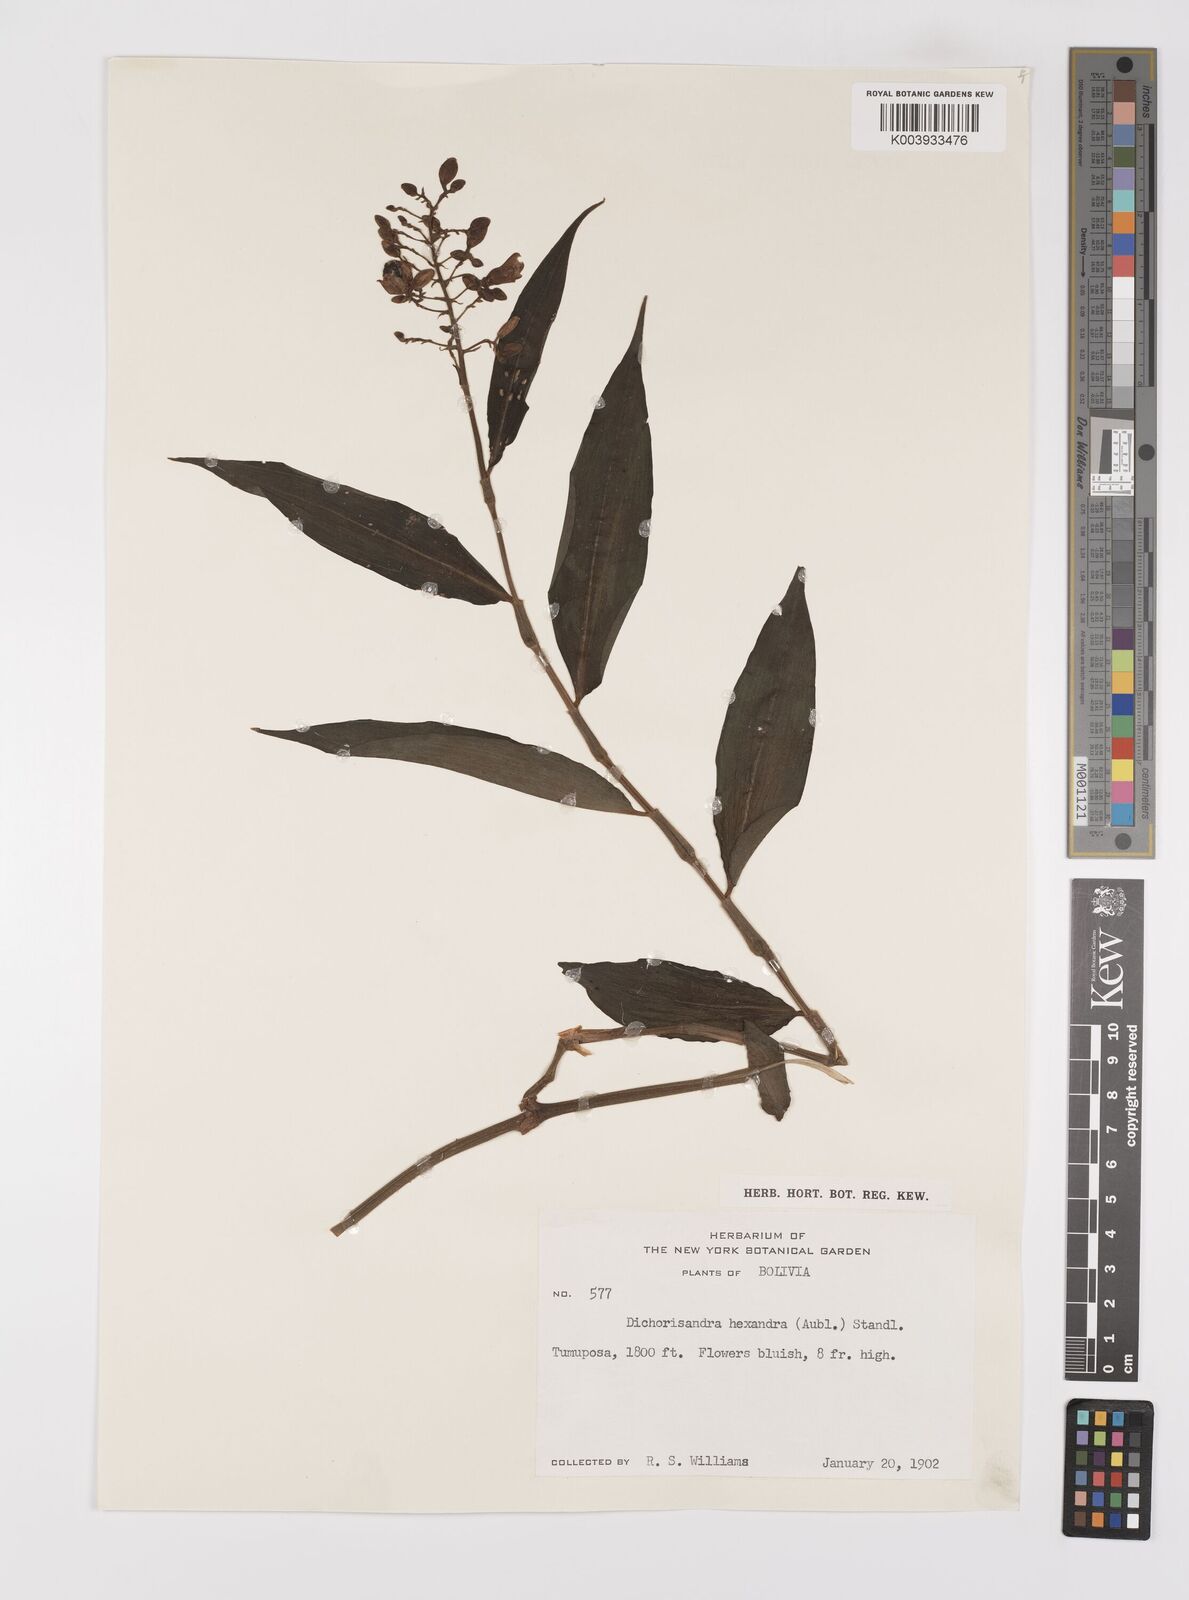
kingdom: Plantae
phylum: Tracheophyta
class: Liliopsida
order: Commelinales
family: Commelinaceae
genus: Dichorisandra
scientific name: Dichorisandra hexandra
